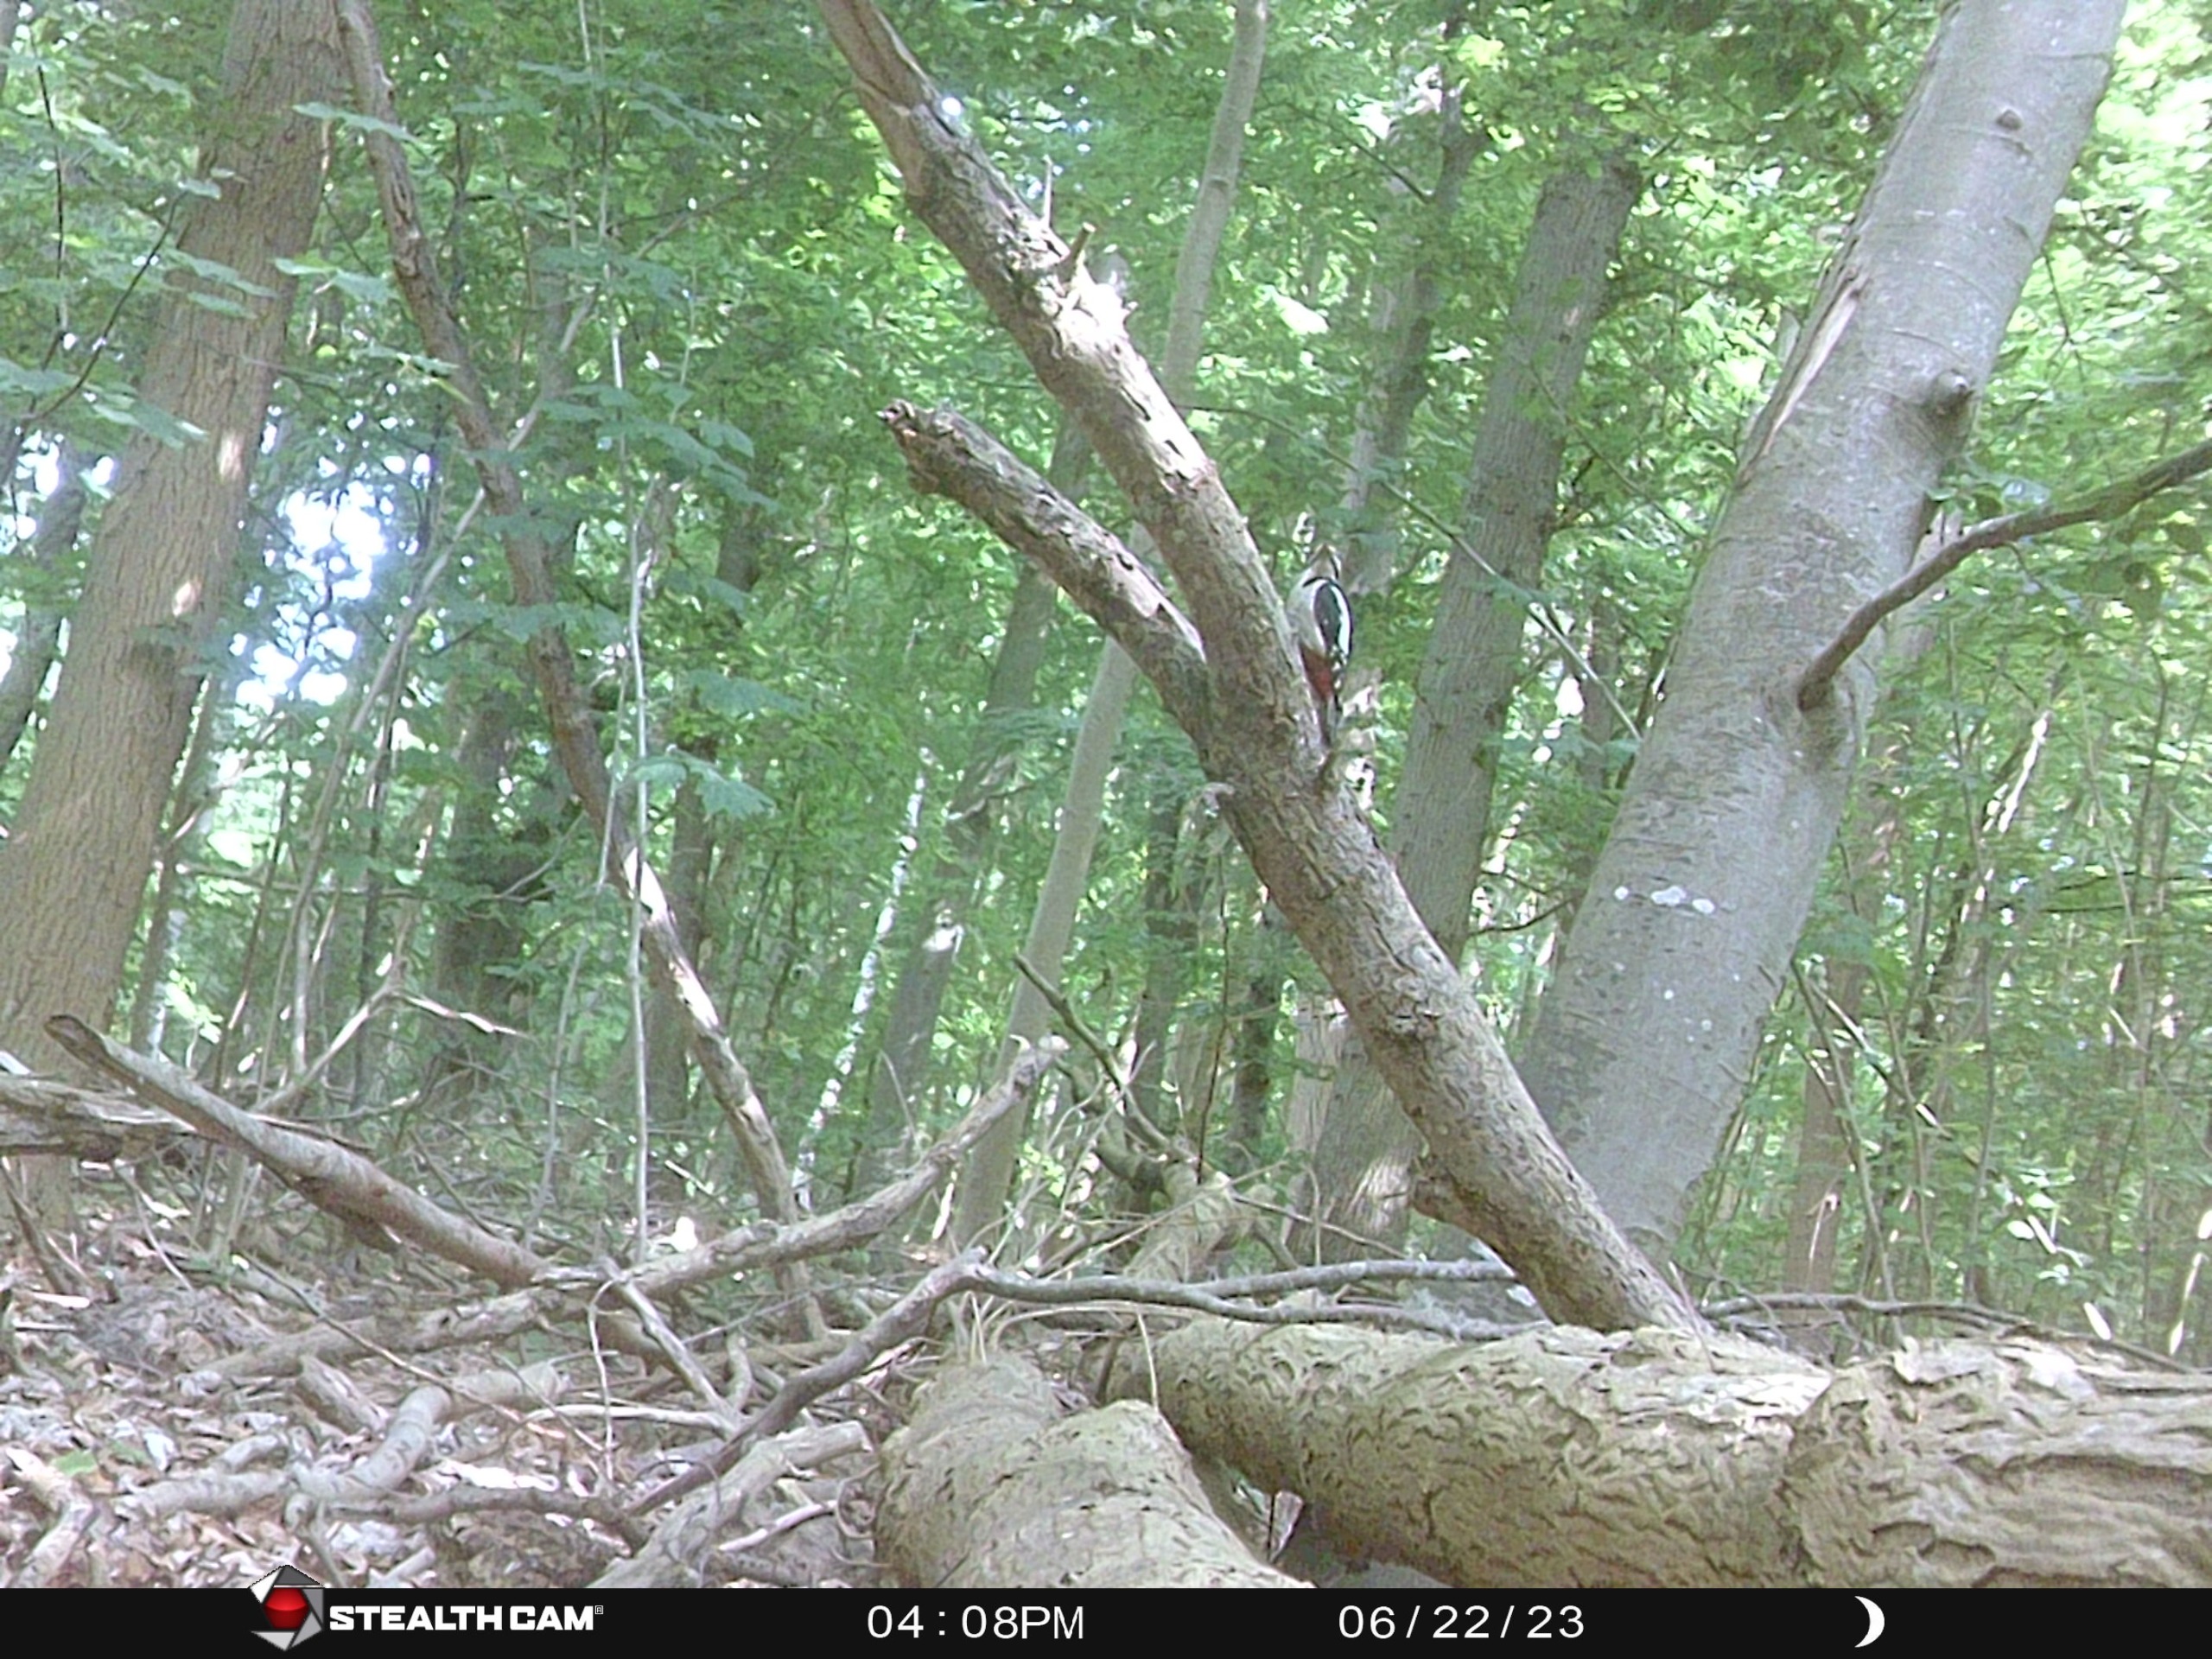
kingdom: Animalia
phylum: Chordata
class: Aves
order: Piciformes
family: Picidae
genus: Dendrocopos
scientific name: Dendrocopos major
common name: Stor flagspætte
